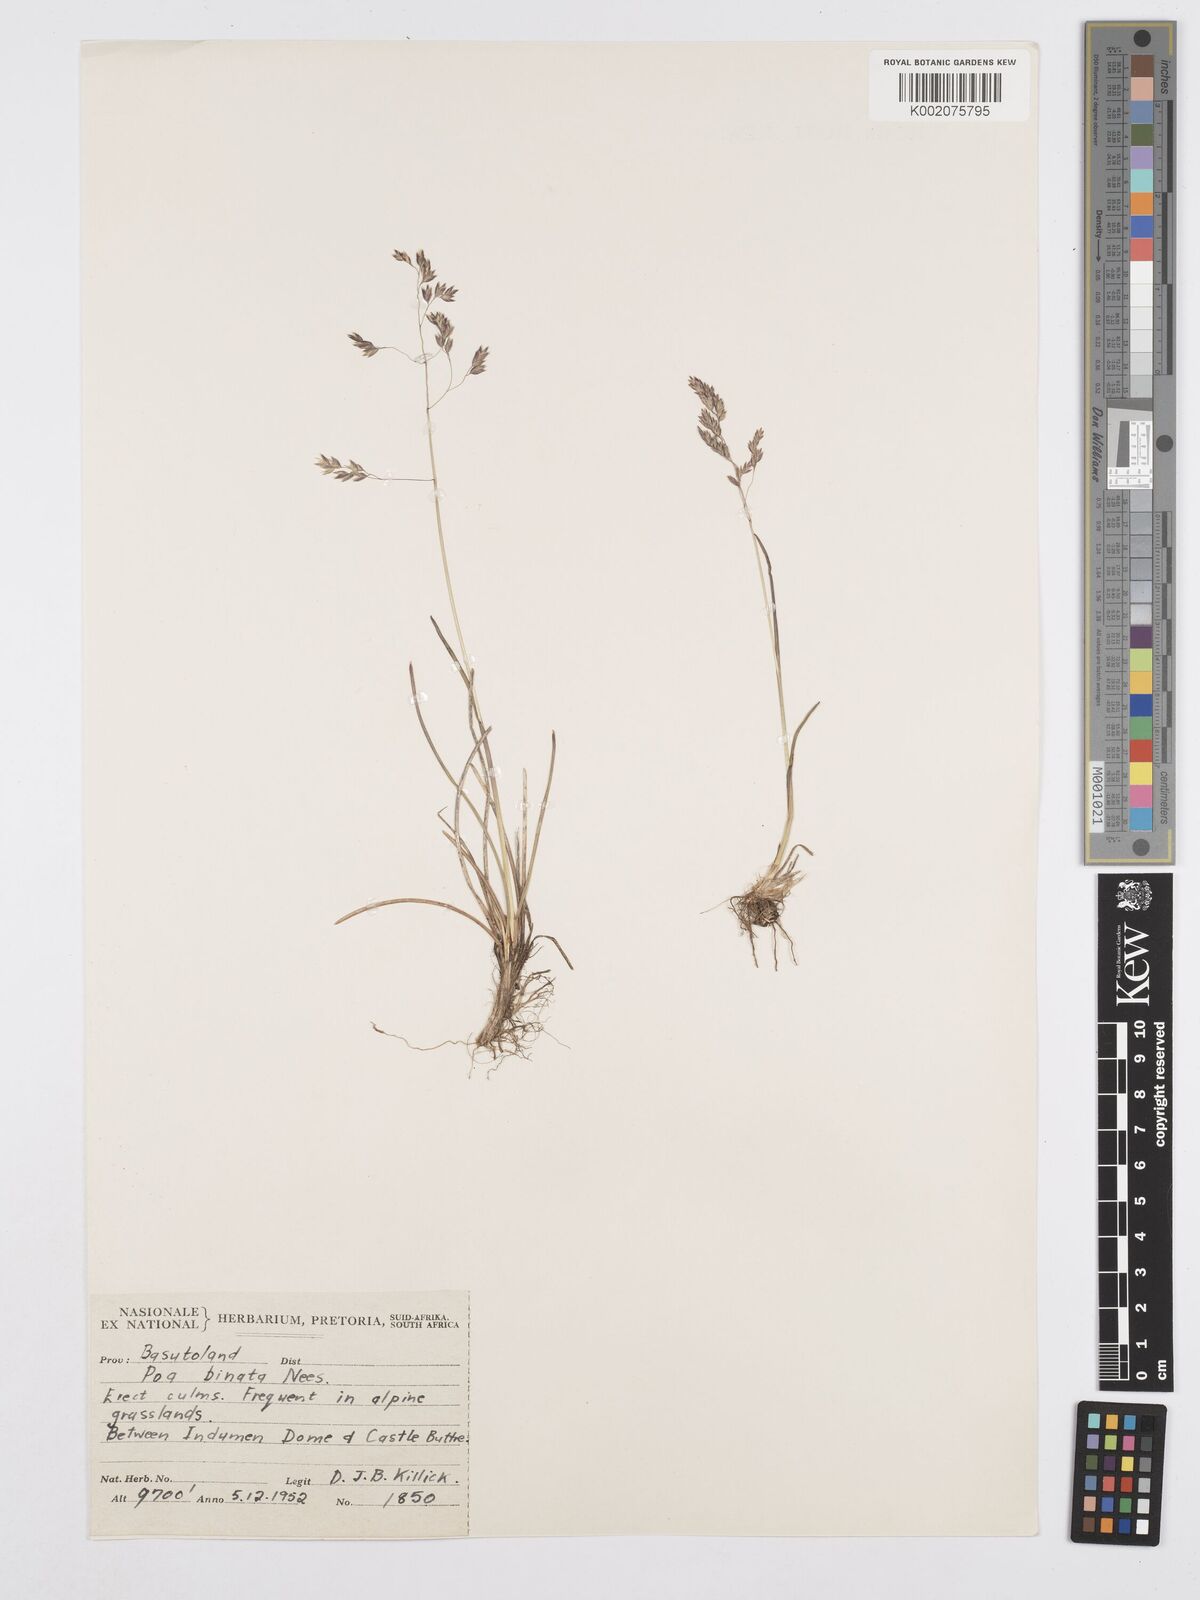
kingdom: Plantae
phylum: Tracheophyta
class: Liliopsida
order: Poales
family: Poaceae
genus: Poa
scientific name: Poa binata
